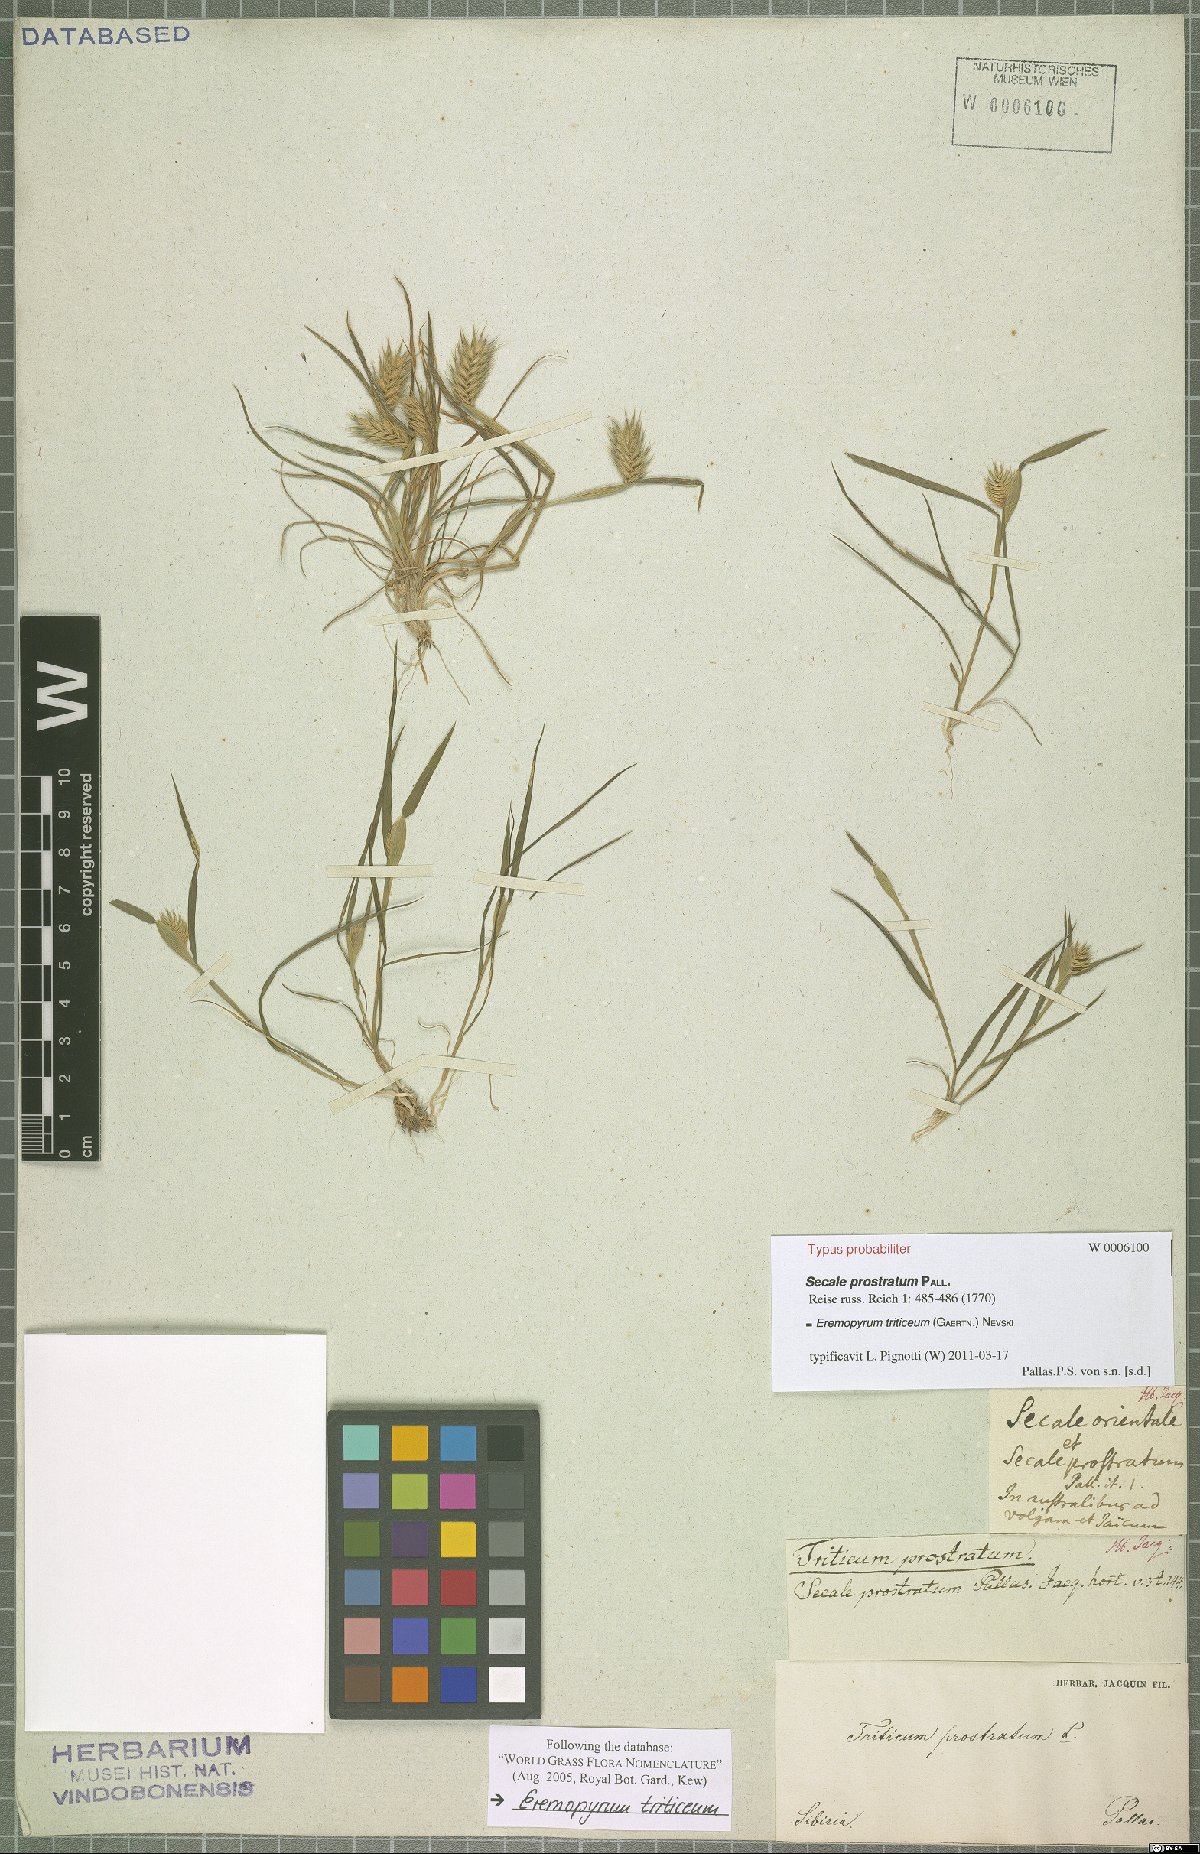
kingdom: Plantae
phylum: Tracheophyta
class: Liliopsida
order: Poales
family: Poaceae
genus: Eremopyrum
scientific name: Eremopyrum triticeum
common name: Annual wheatgrass
